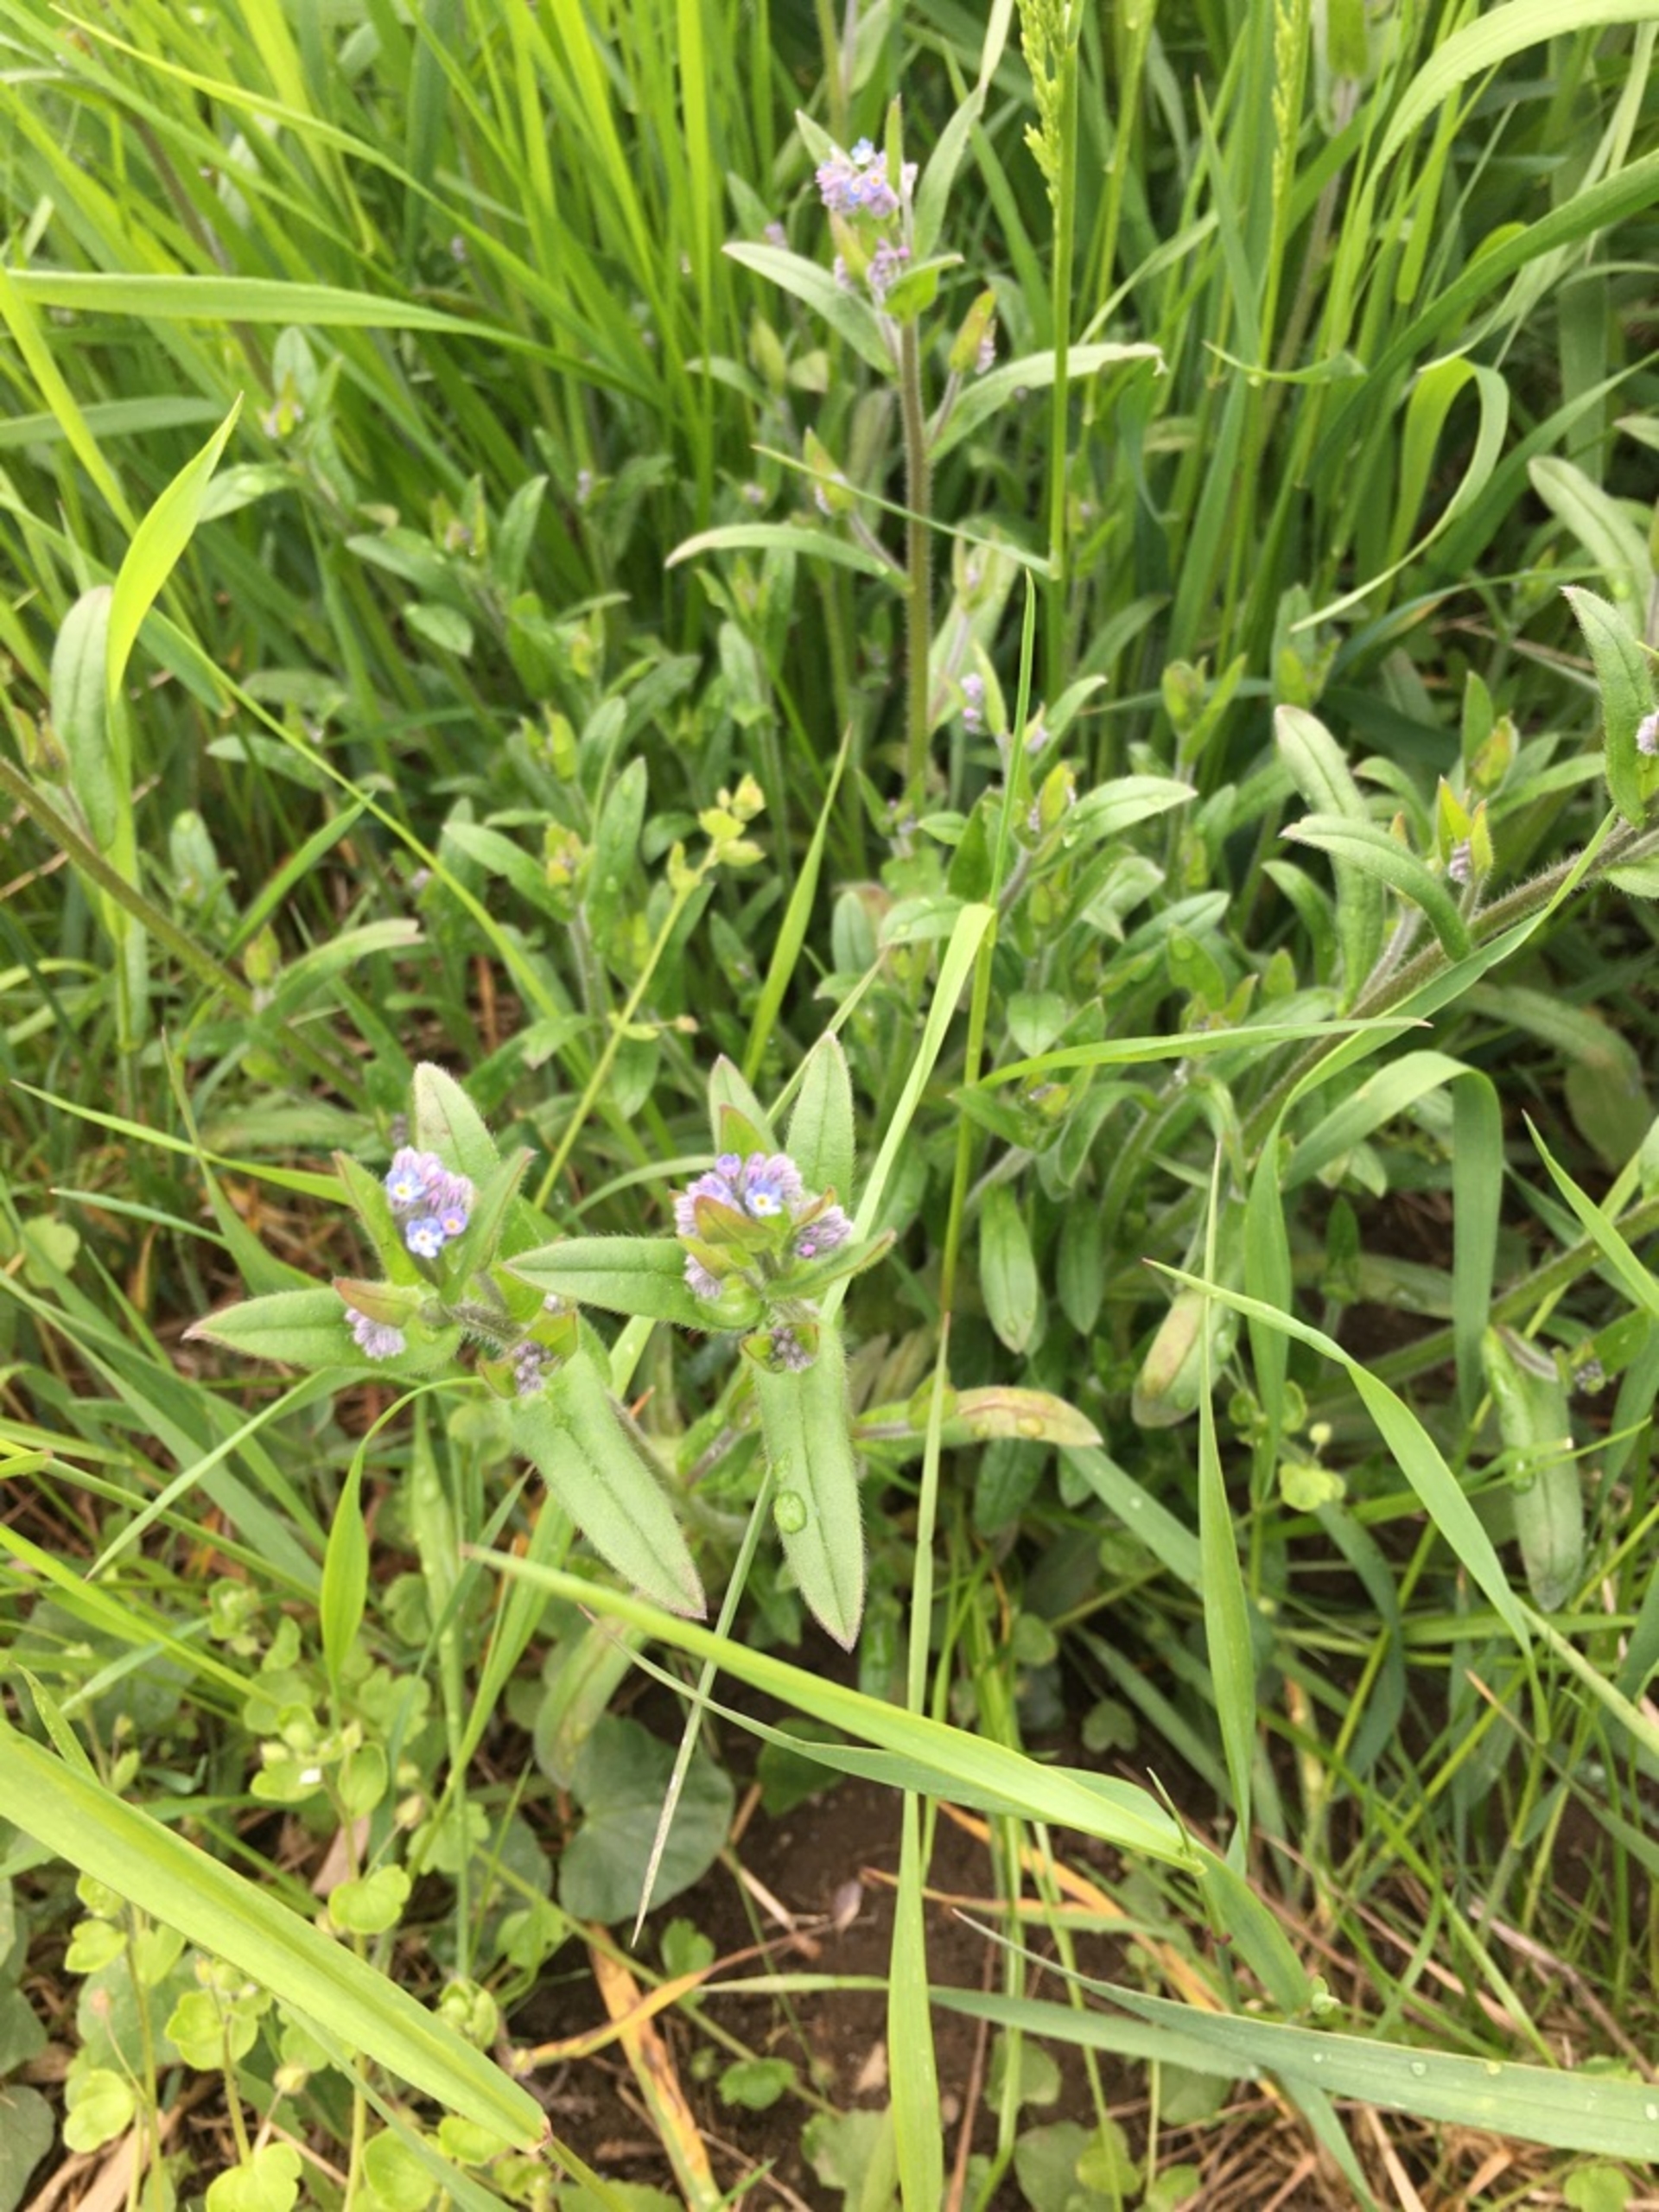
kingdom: Plantae
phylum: Tracheophyta
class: Magnoliopsida
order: Boraginales
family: Boraginaceae
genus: Myosotis
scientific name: Myosotis arvensis
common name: Mark-forglemmigej
